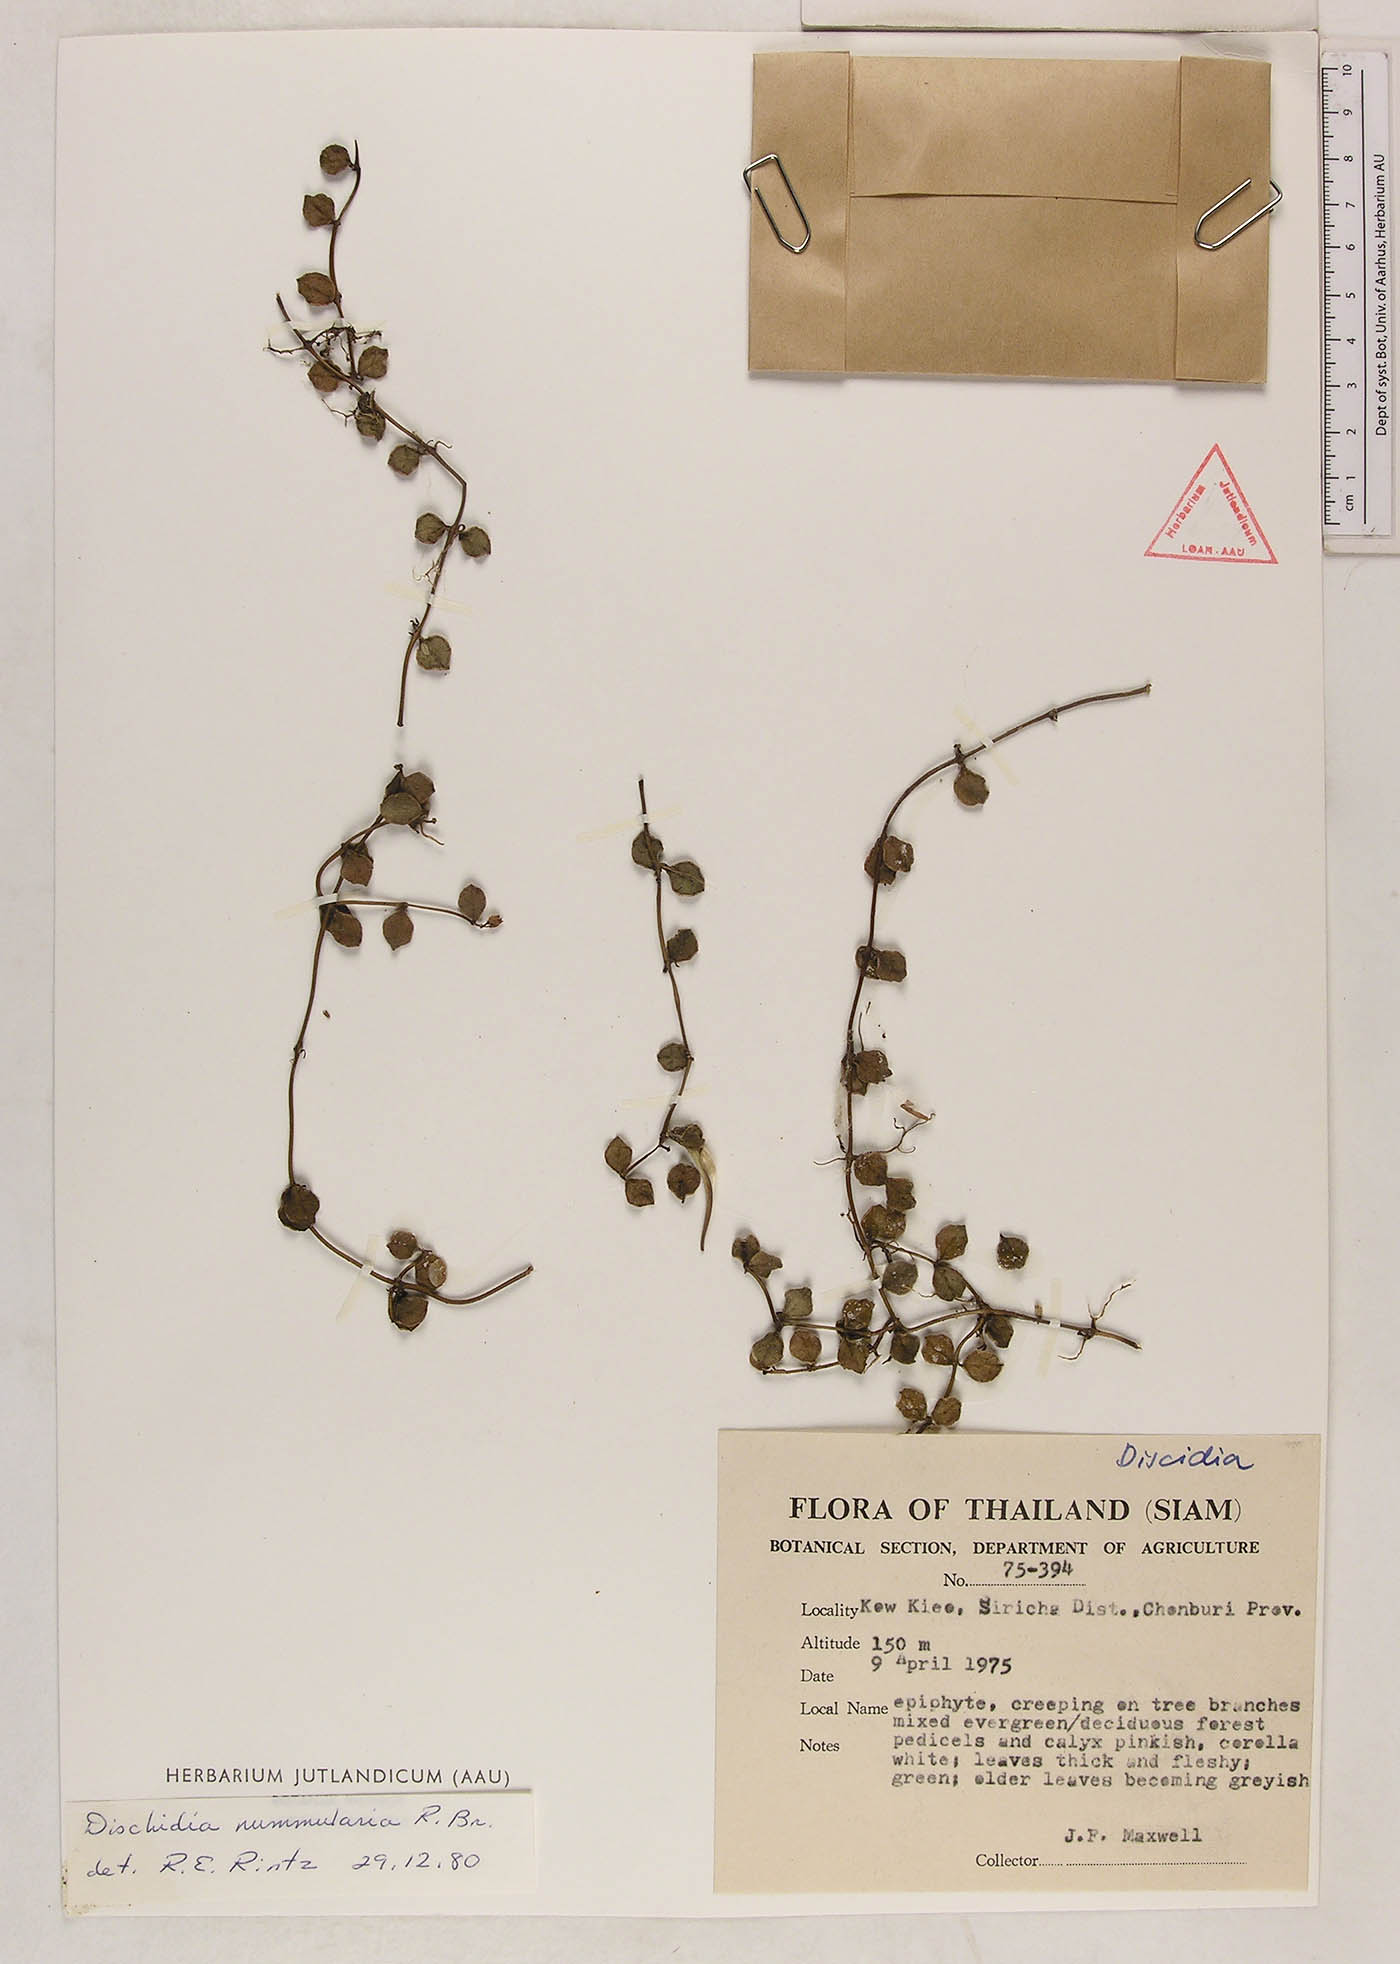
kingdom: Plantae
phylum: Tracheophyta
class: Magnoliopsida
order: Gentianales
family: Apocynaceae
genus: Dischidia
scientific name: Dischidia nummularia
